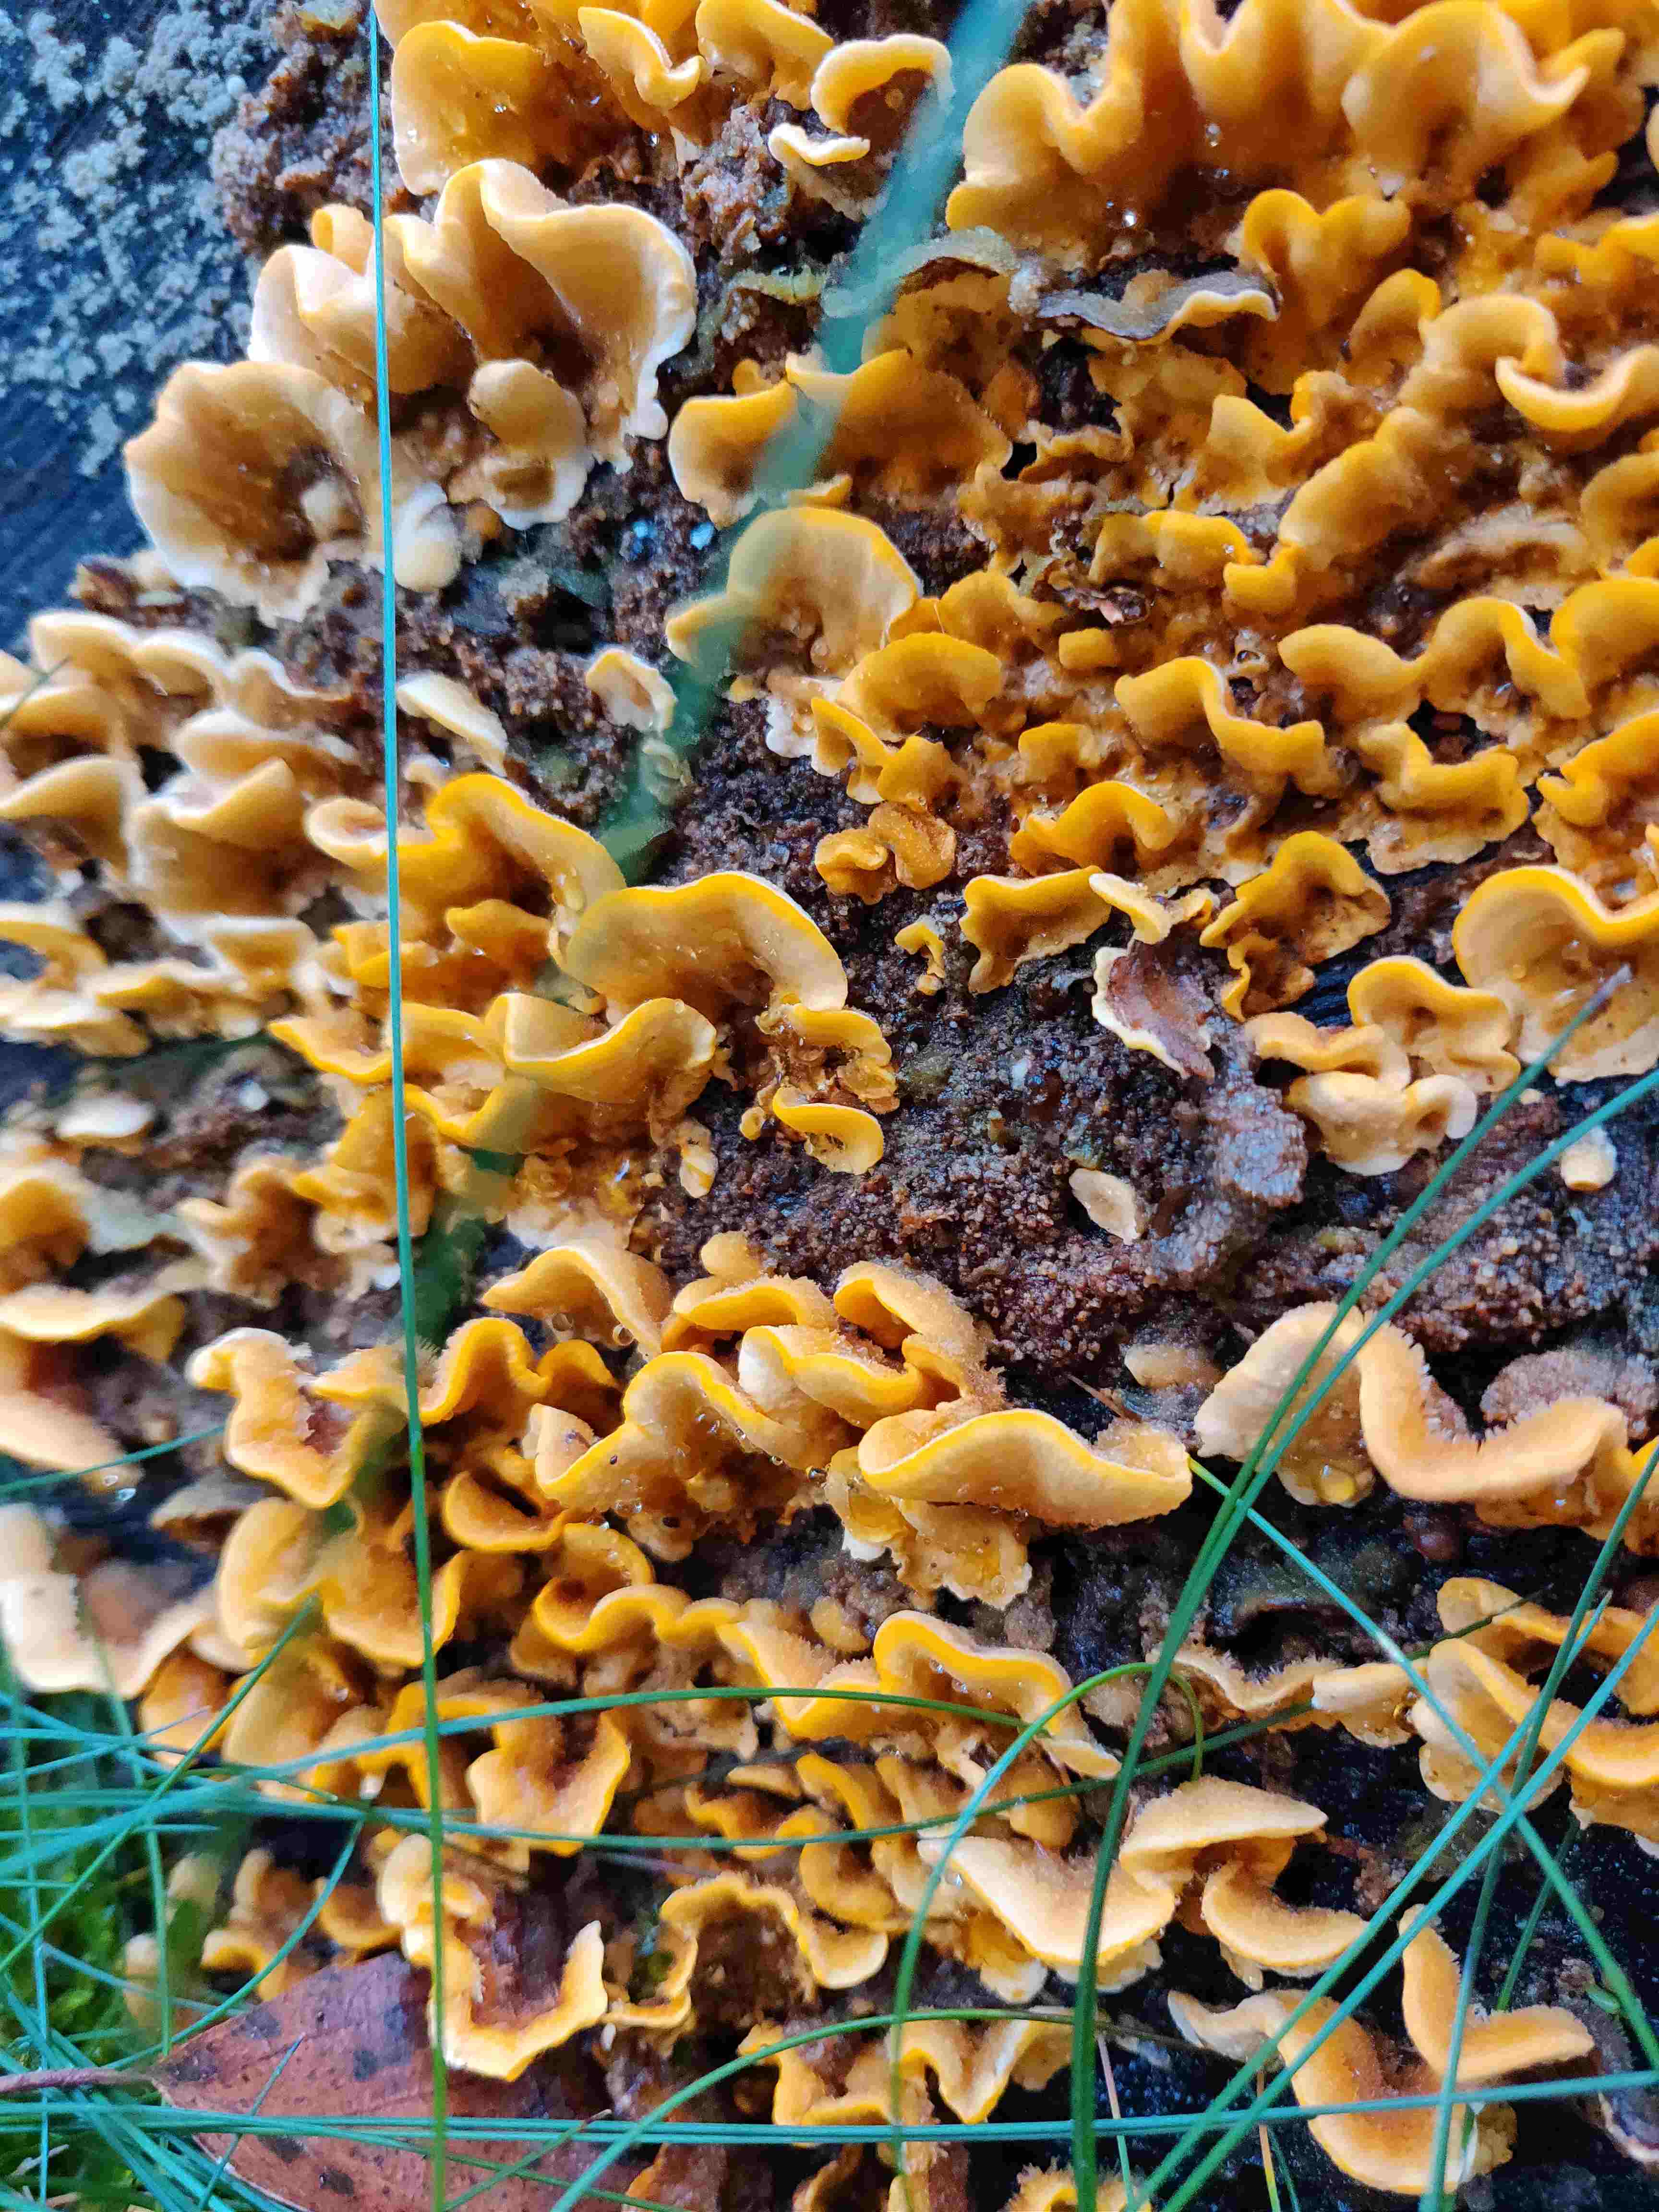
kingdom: Fungi
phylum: Basidiomycota
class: Agaricomycetes
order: Russulales
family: Stereaceae
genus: Stereum
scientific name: Stereum hirsutum
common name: håret lædersvamp
